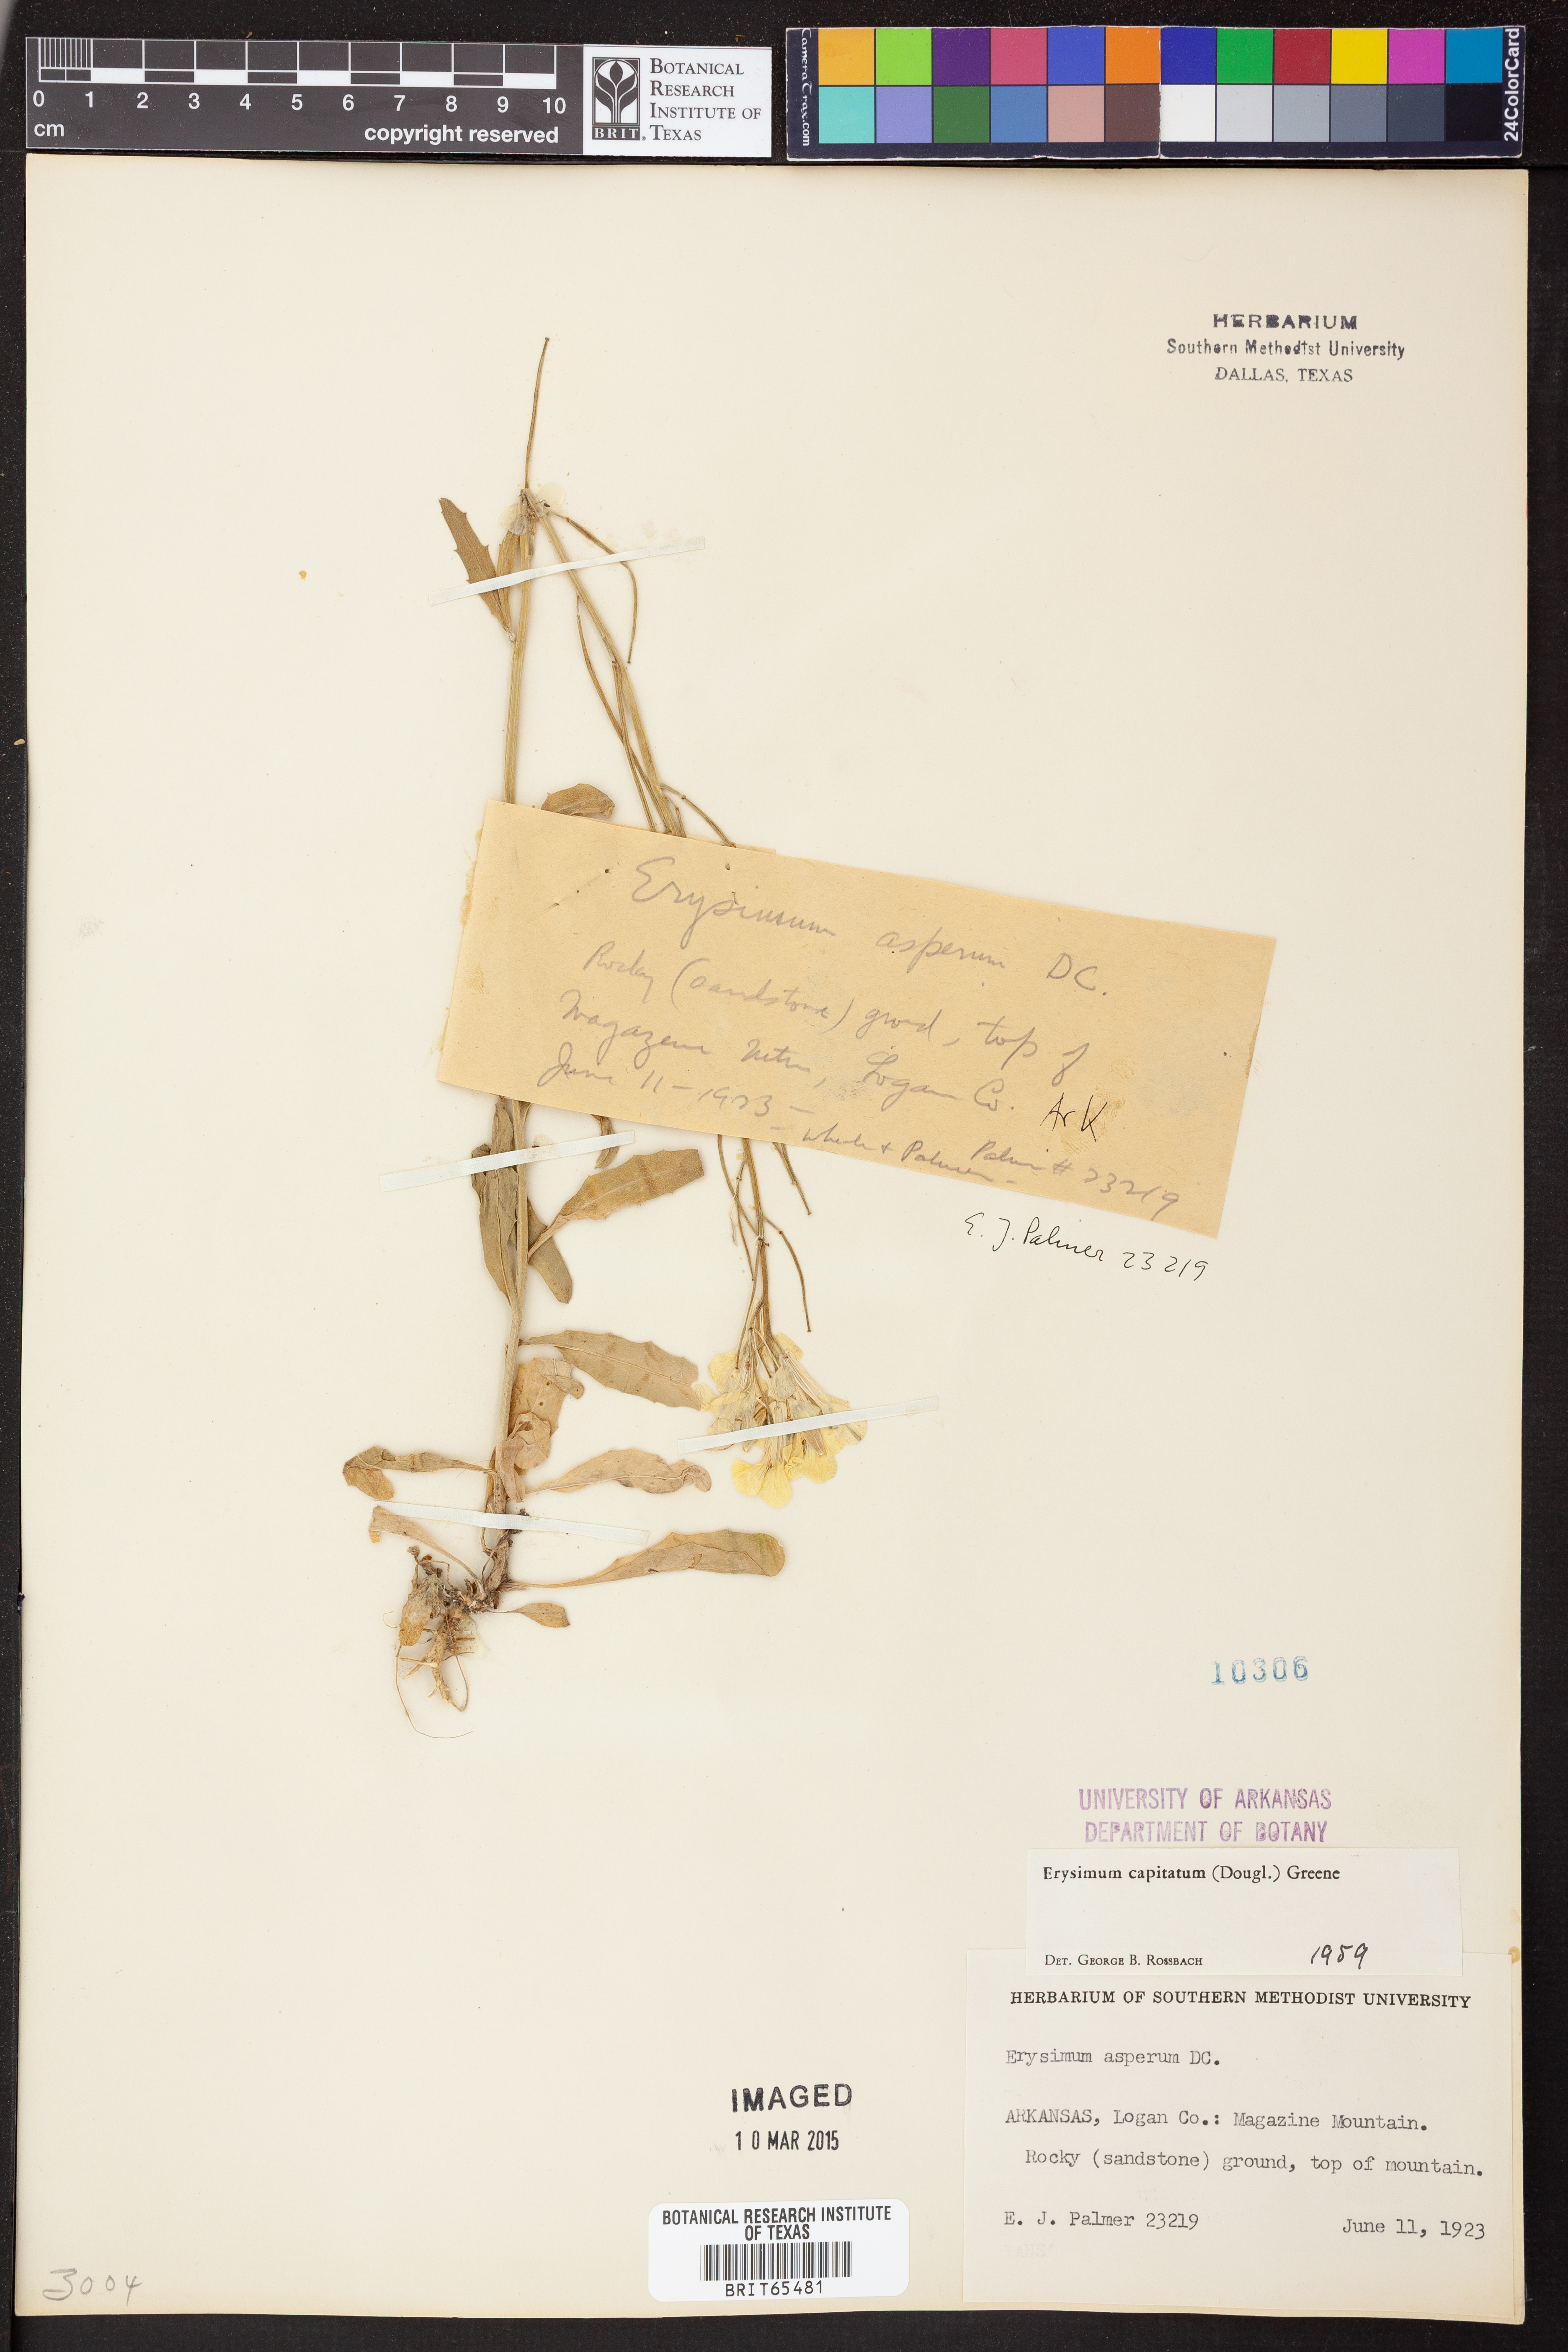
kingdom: Plantae
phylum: Tracheophyta
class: Magnoliopsida
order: Brassicales
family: Brassicaceae
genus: Erysimum
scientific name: Erysimum capitatum
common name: Western wallflower
